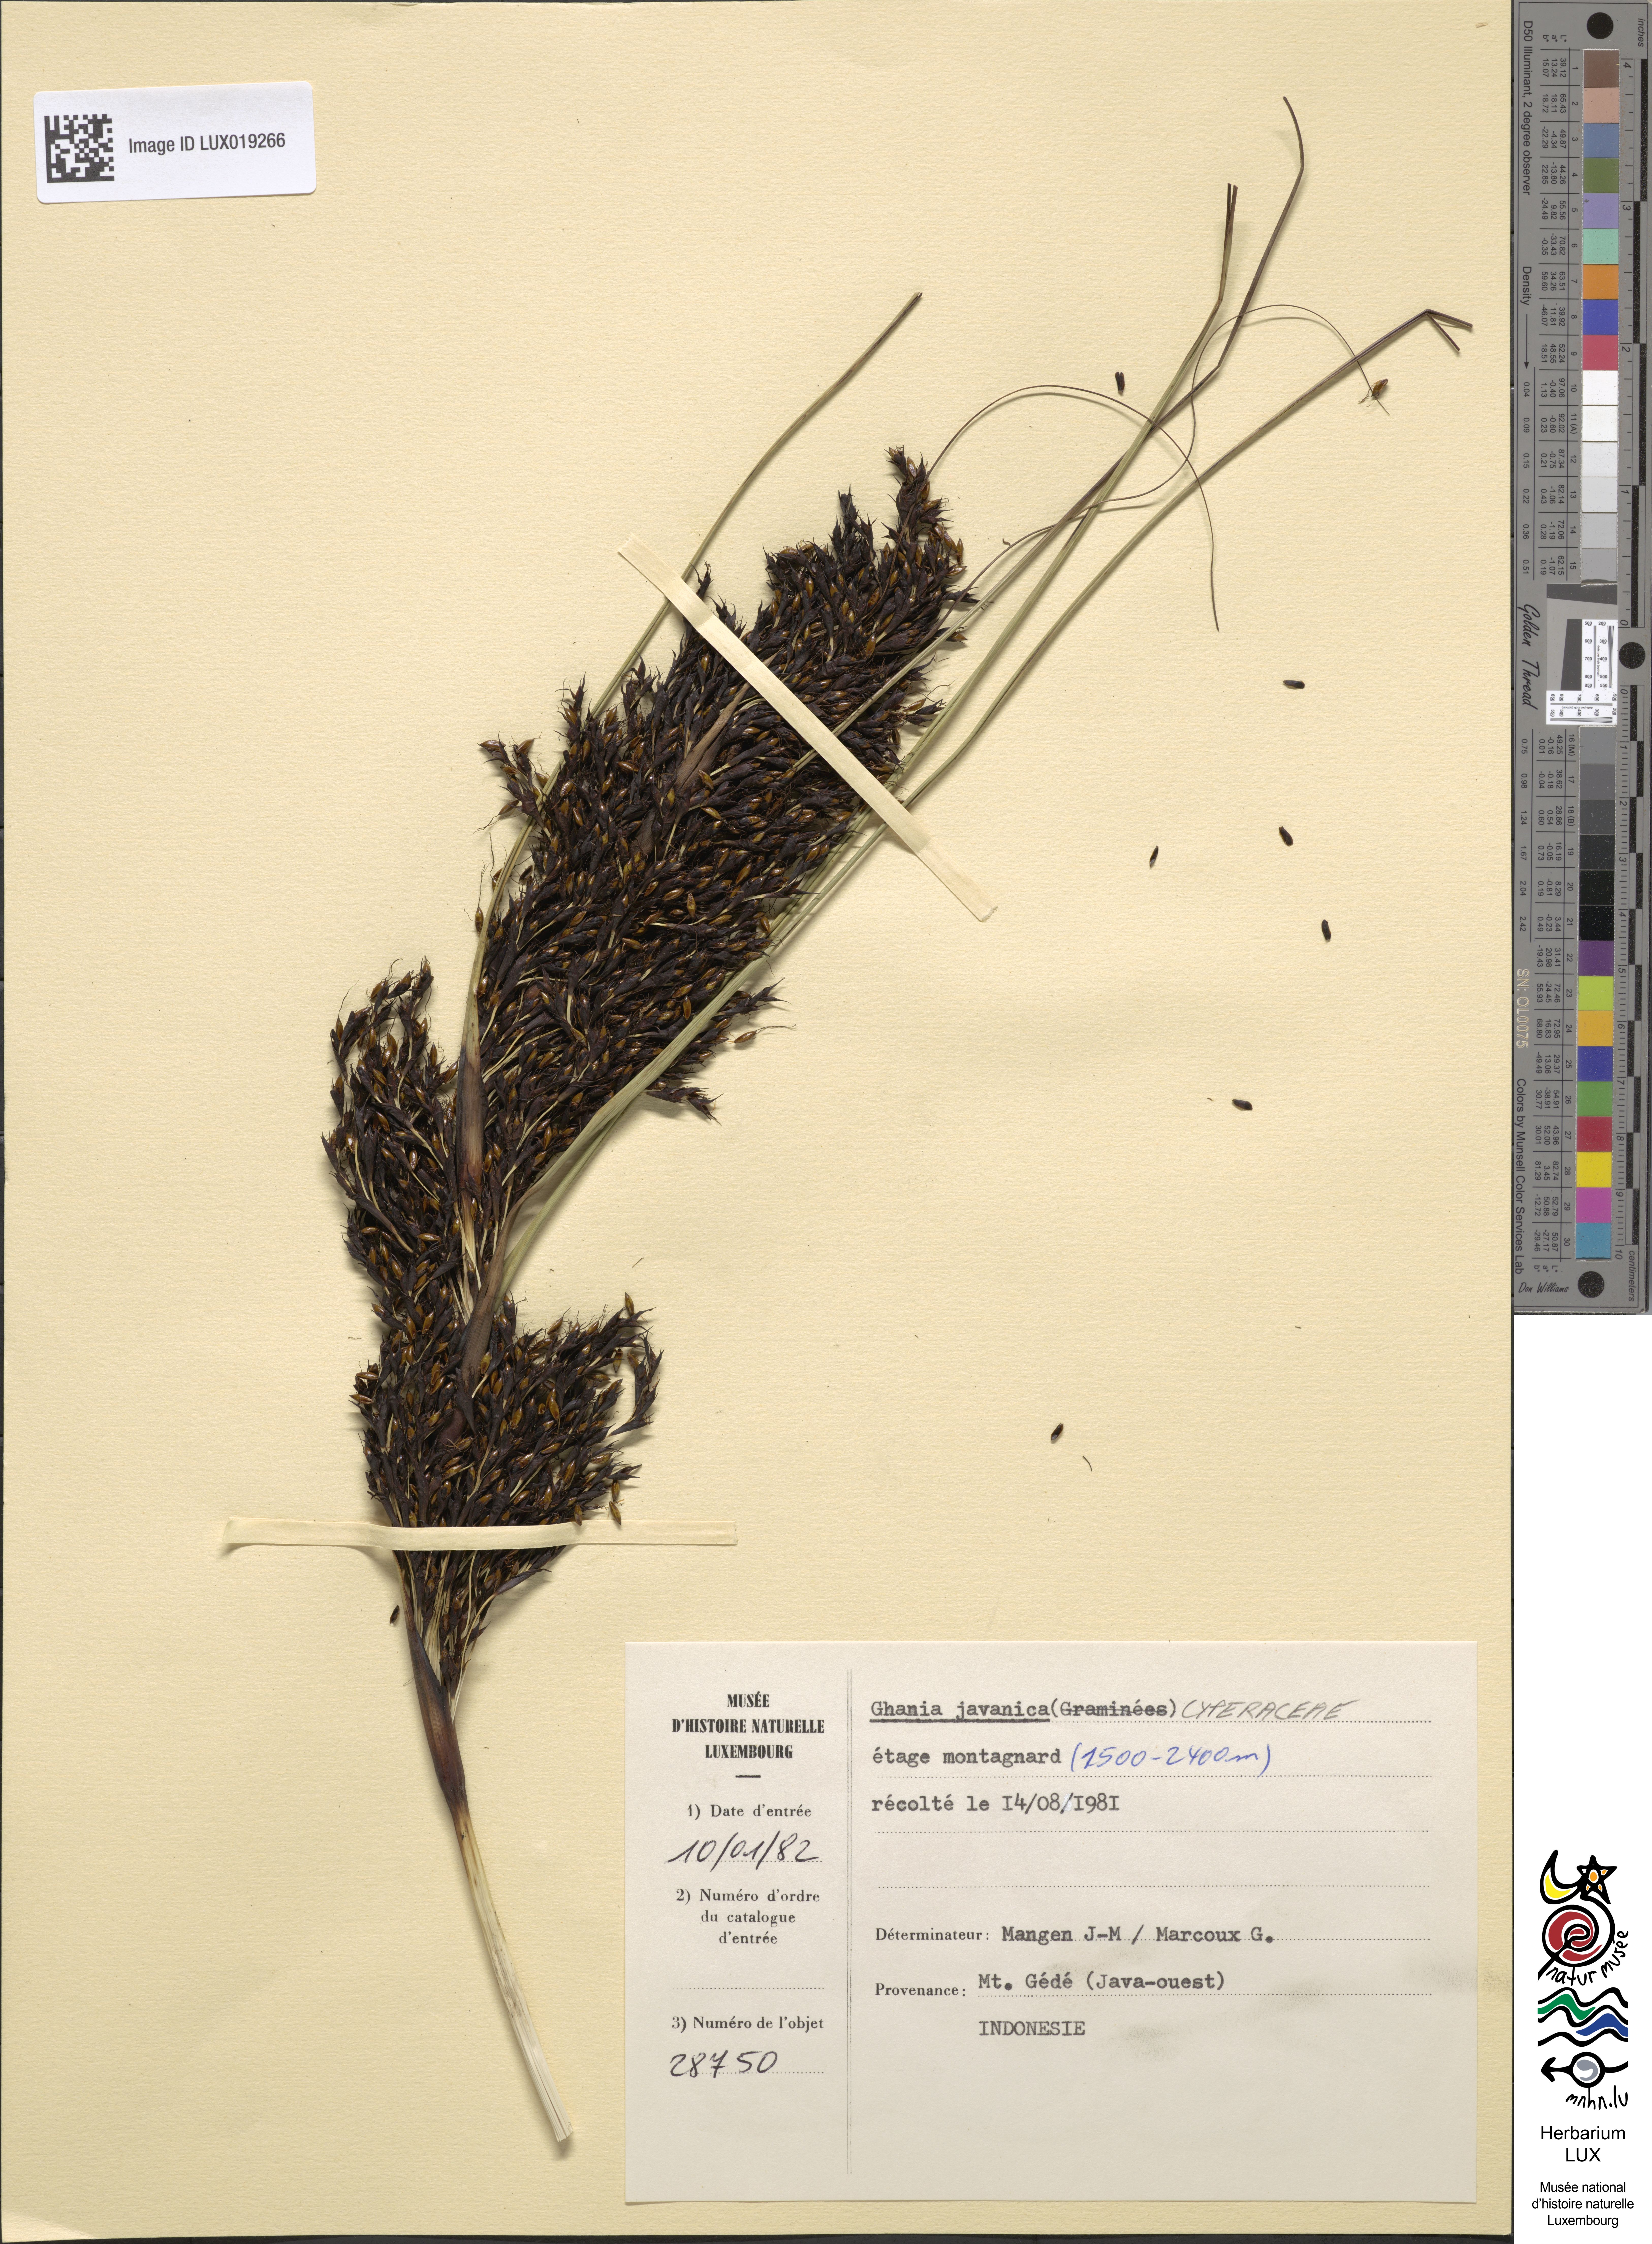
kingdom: Plantae
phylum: Tracheophyta
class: Liliopsida
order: Poales
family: Cyperaceae
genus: Gahnia
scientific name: Gahnia javanica
